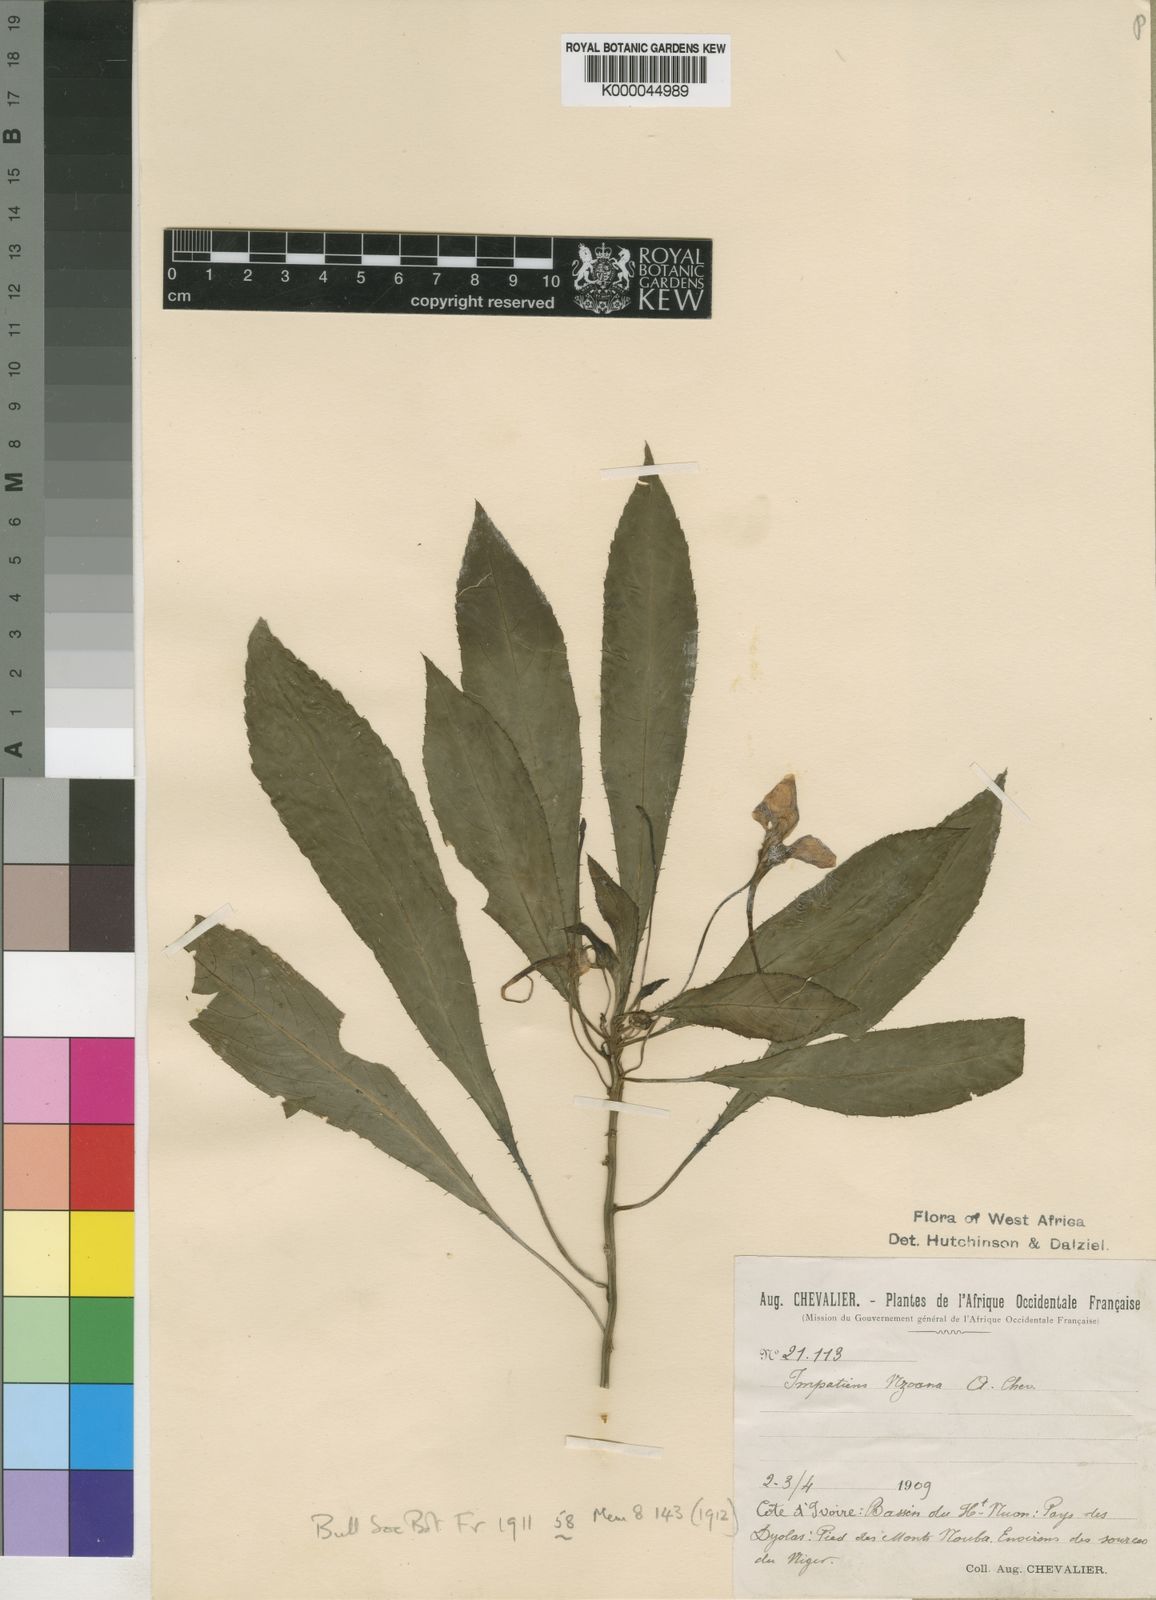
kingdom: Plantae
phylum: Tracheophyta
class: Magnoliopsida
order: Ericales
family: Balsaminaceae
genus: Impatiens
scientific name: Impatiens nzoana
